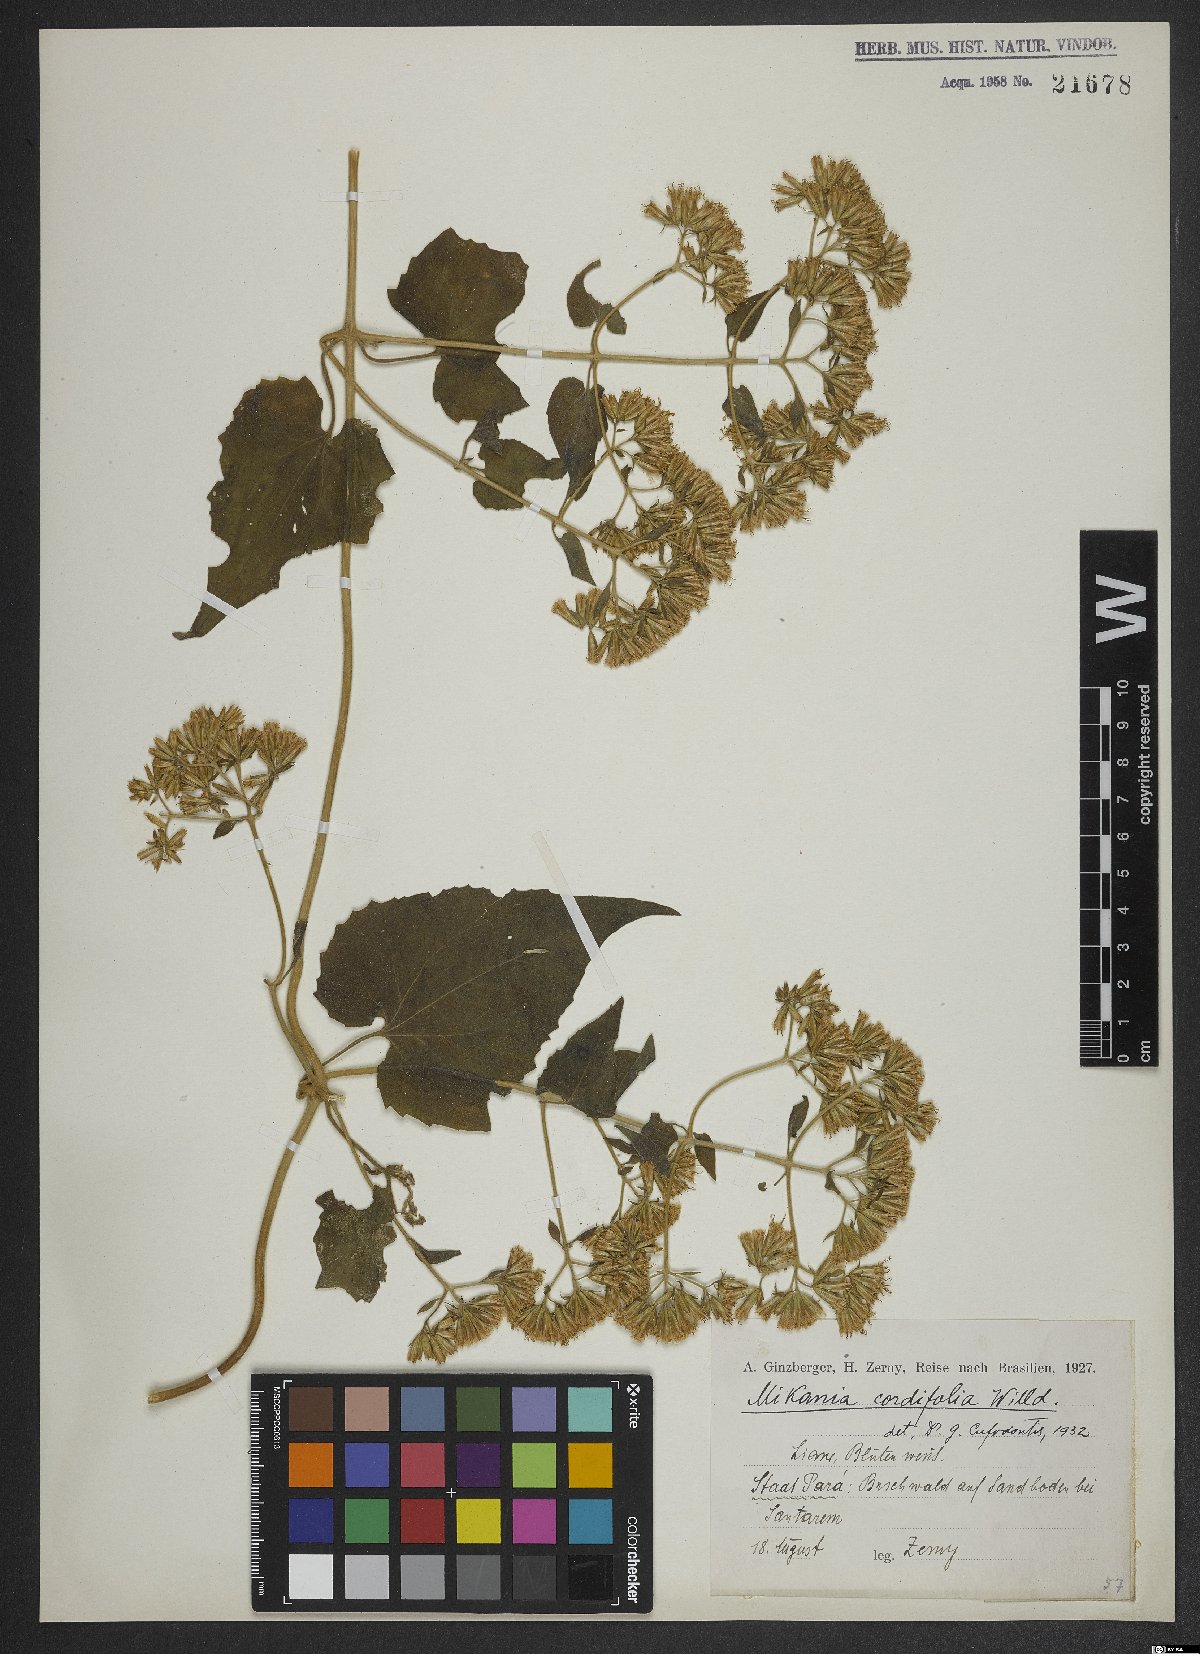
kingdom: Plantae
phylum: Tracheophyta
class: Magnoliopsida
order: Asterales
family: Asteraceae
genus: Mikania
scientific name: Mikania cordifolia
